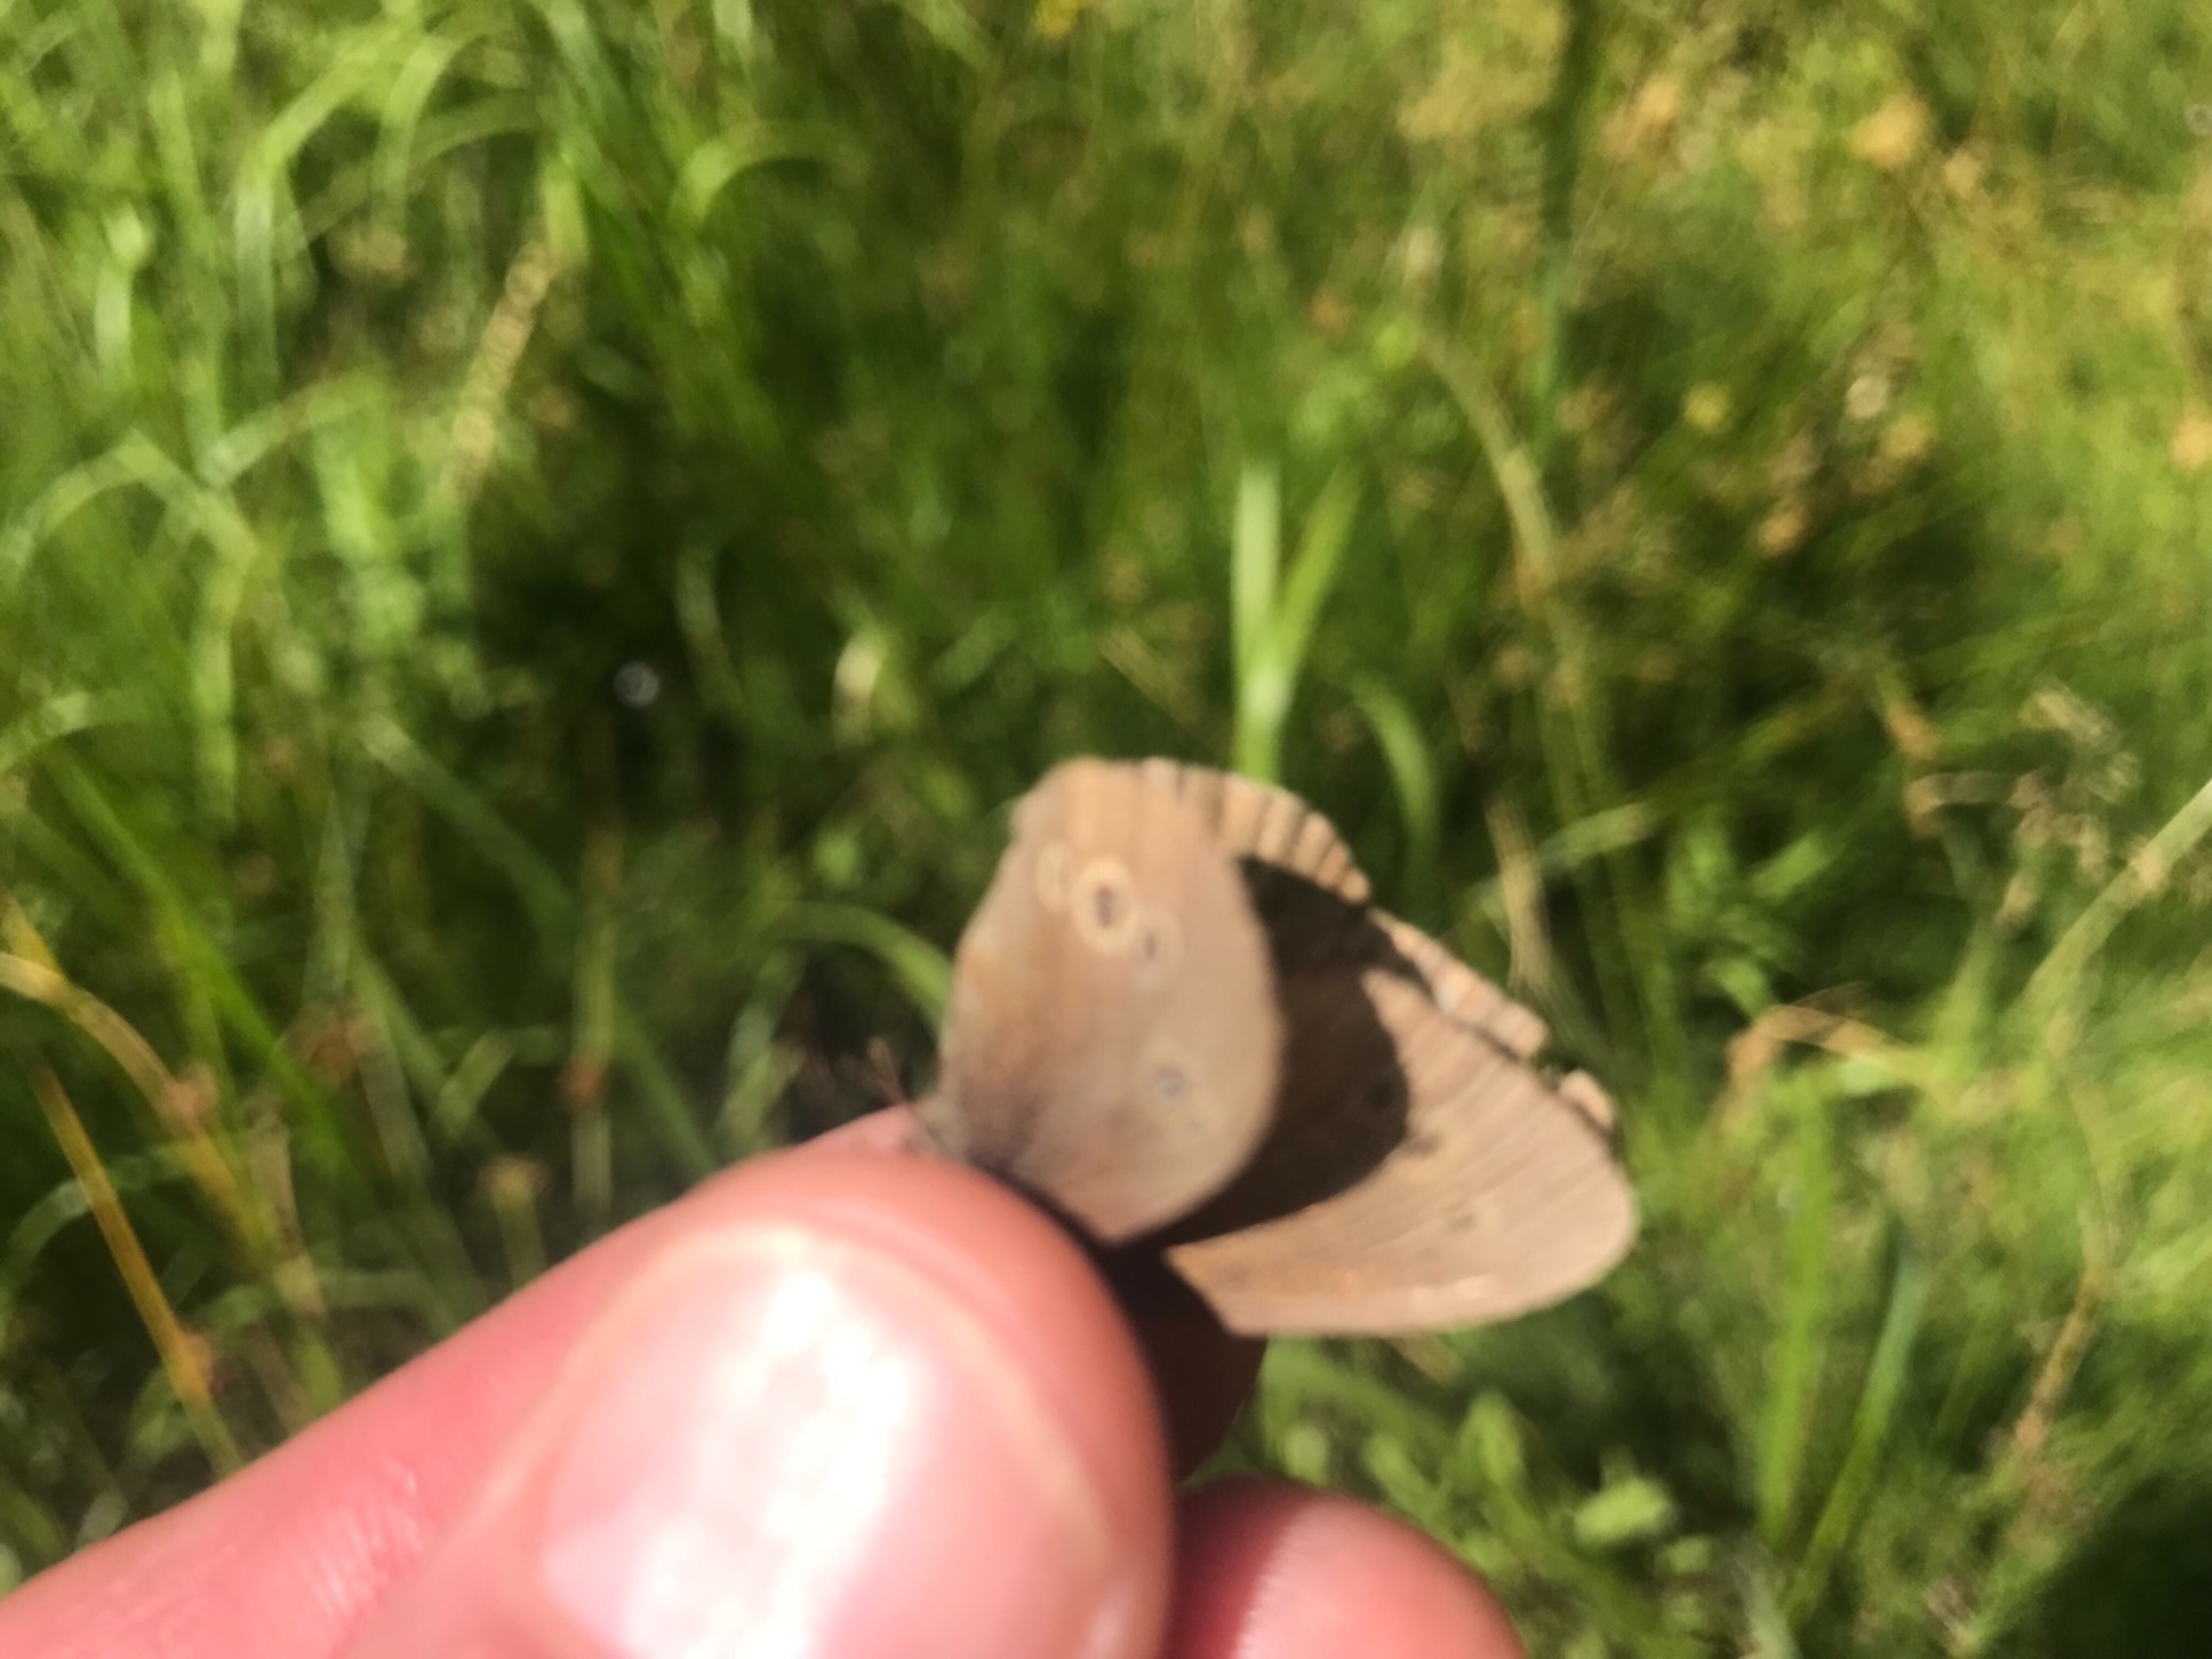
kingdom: Animalia
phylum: Arthropoda
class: Insecta
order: Lepidoptera
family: Nymphalidae
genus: Aphantopus
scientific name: Aphantopus hyperantus
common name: Engrandøje
